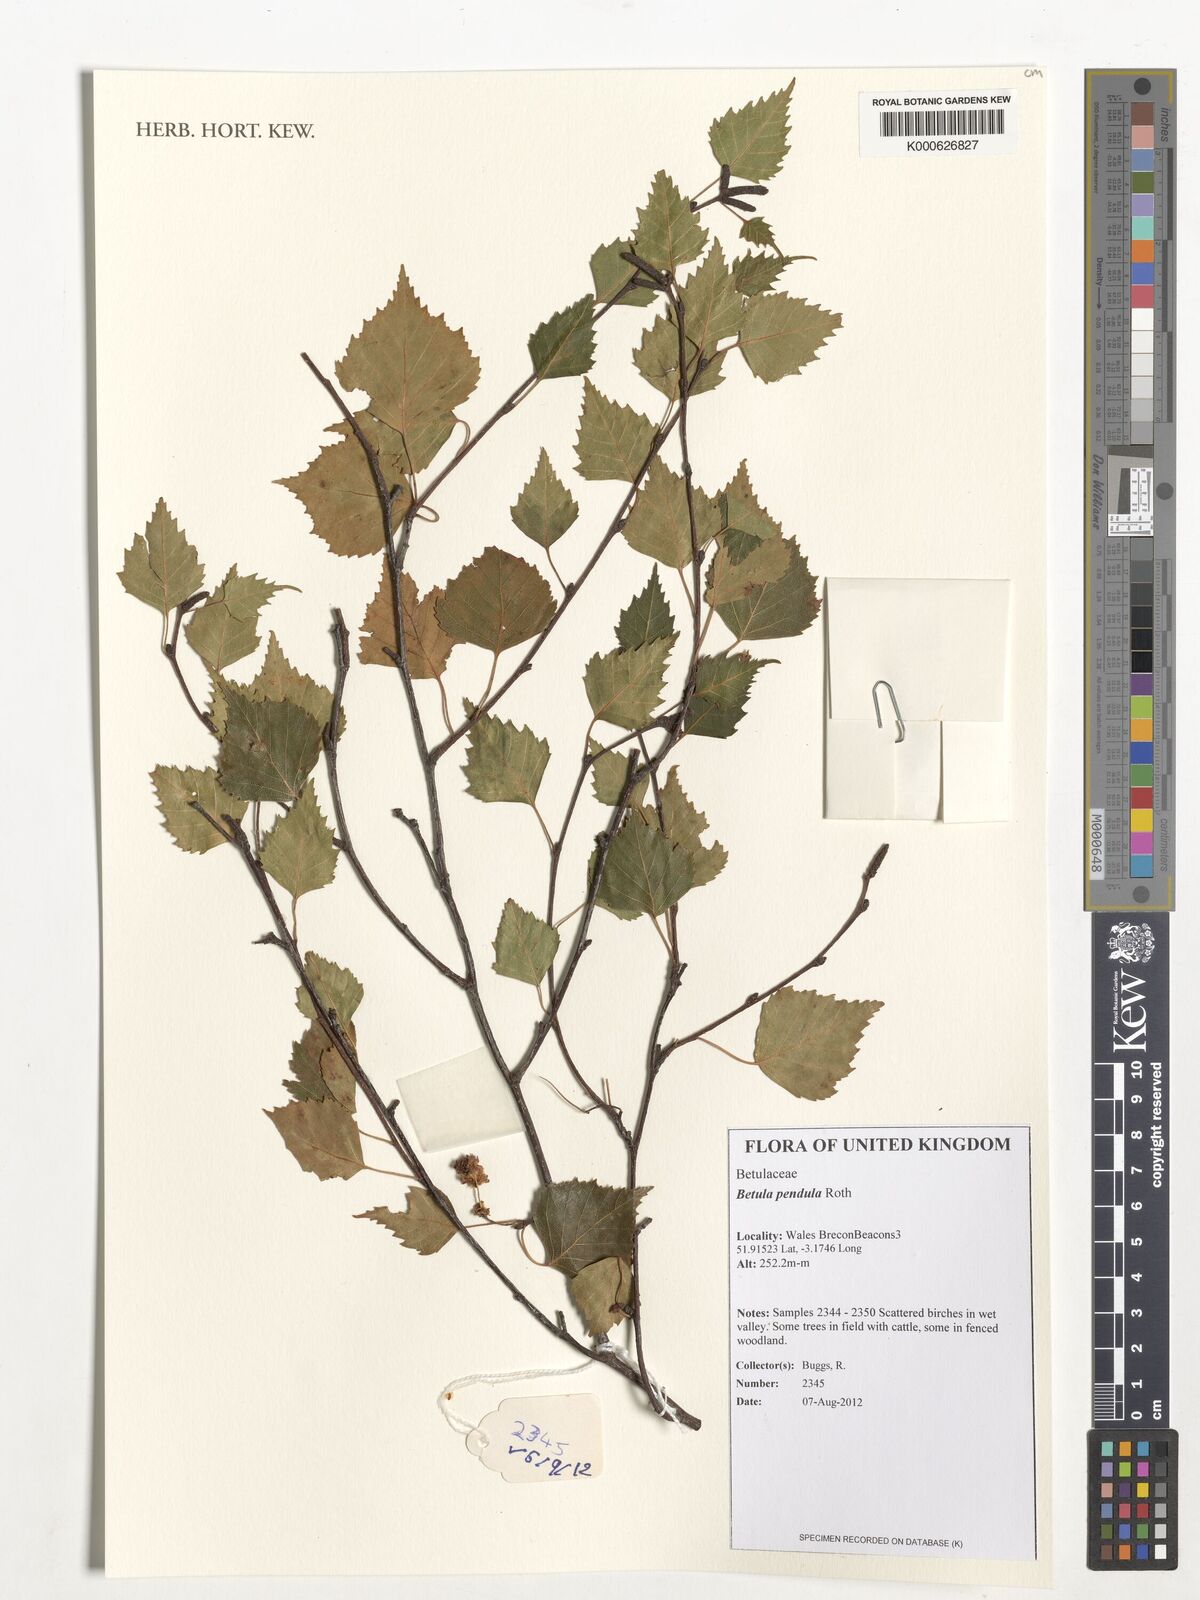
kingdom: Plantae
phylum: Tracheophyta
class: Magnoliopsida
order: Fagales
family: Betulaceae
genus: Betula
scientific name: Betula pendula
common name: Silver birch
